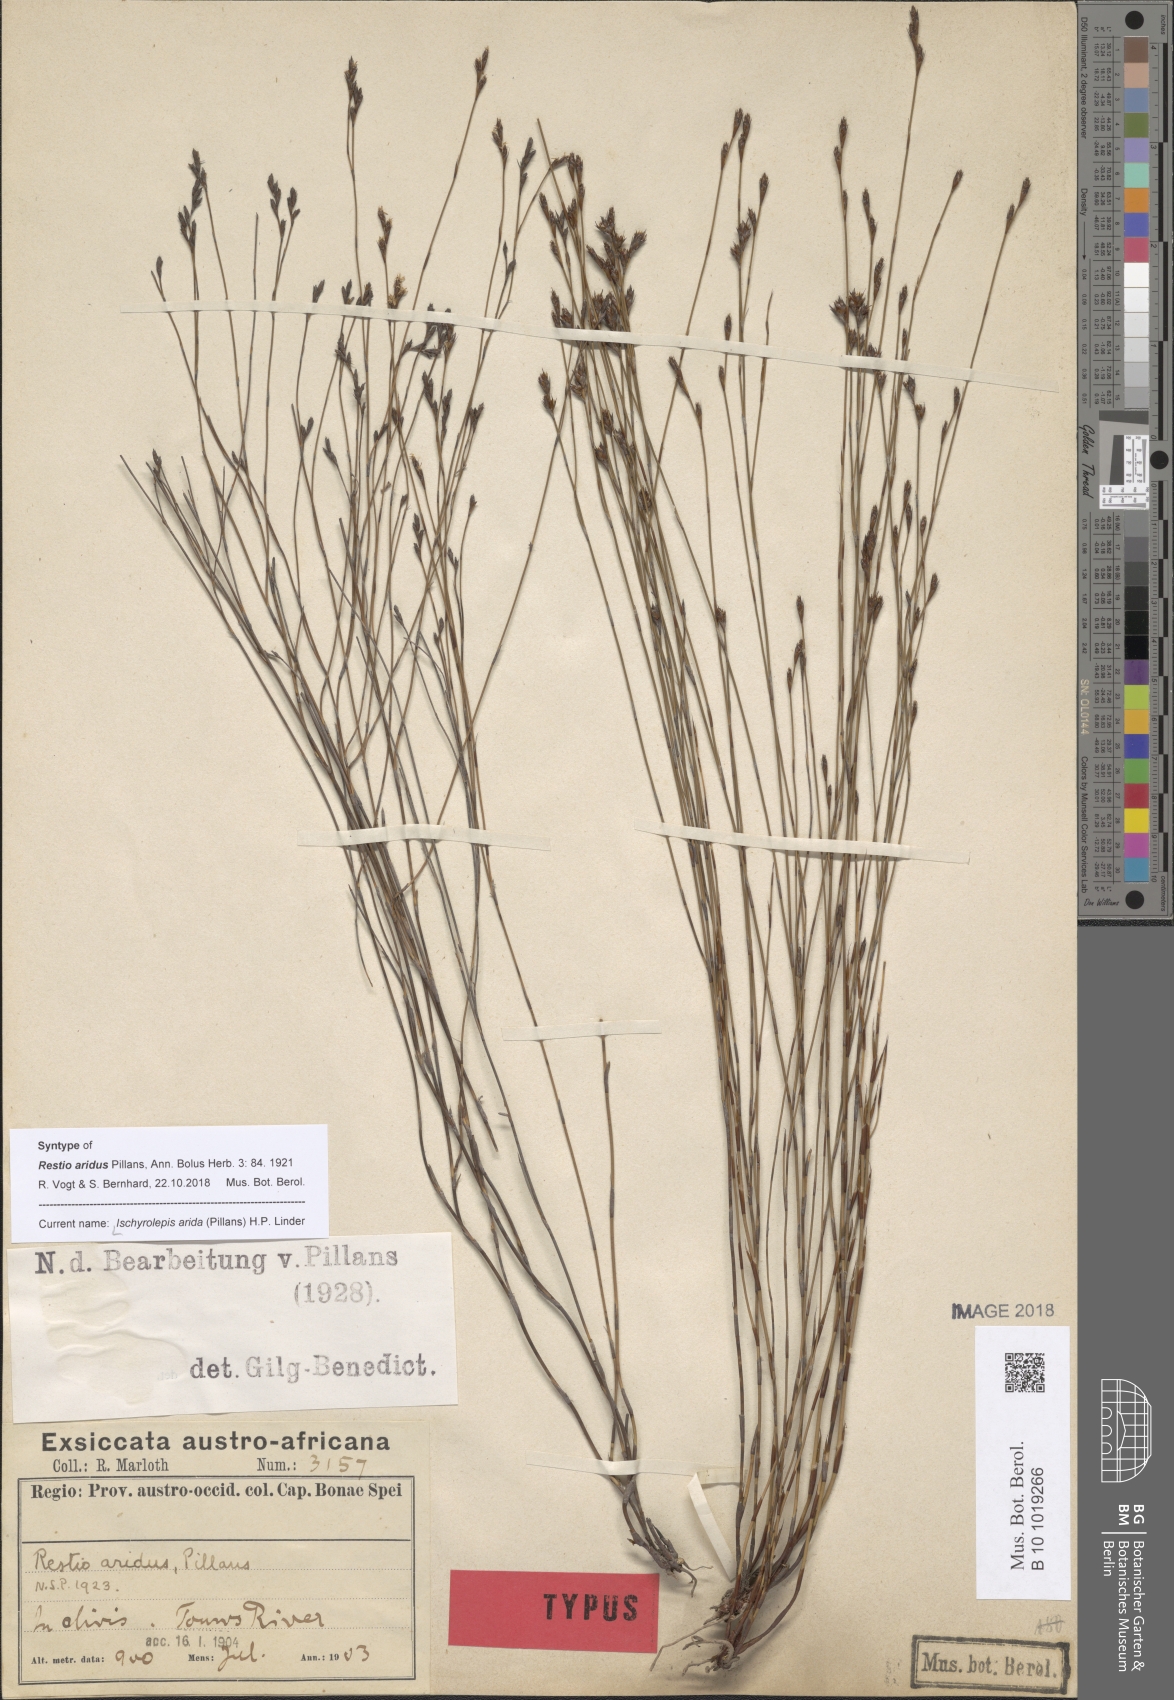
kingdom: Plantae
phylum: Tracheophyta
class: Liliopsida
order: Poales
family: Restionaceae
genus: Restio
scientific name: Restio aridus
